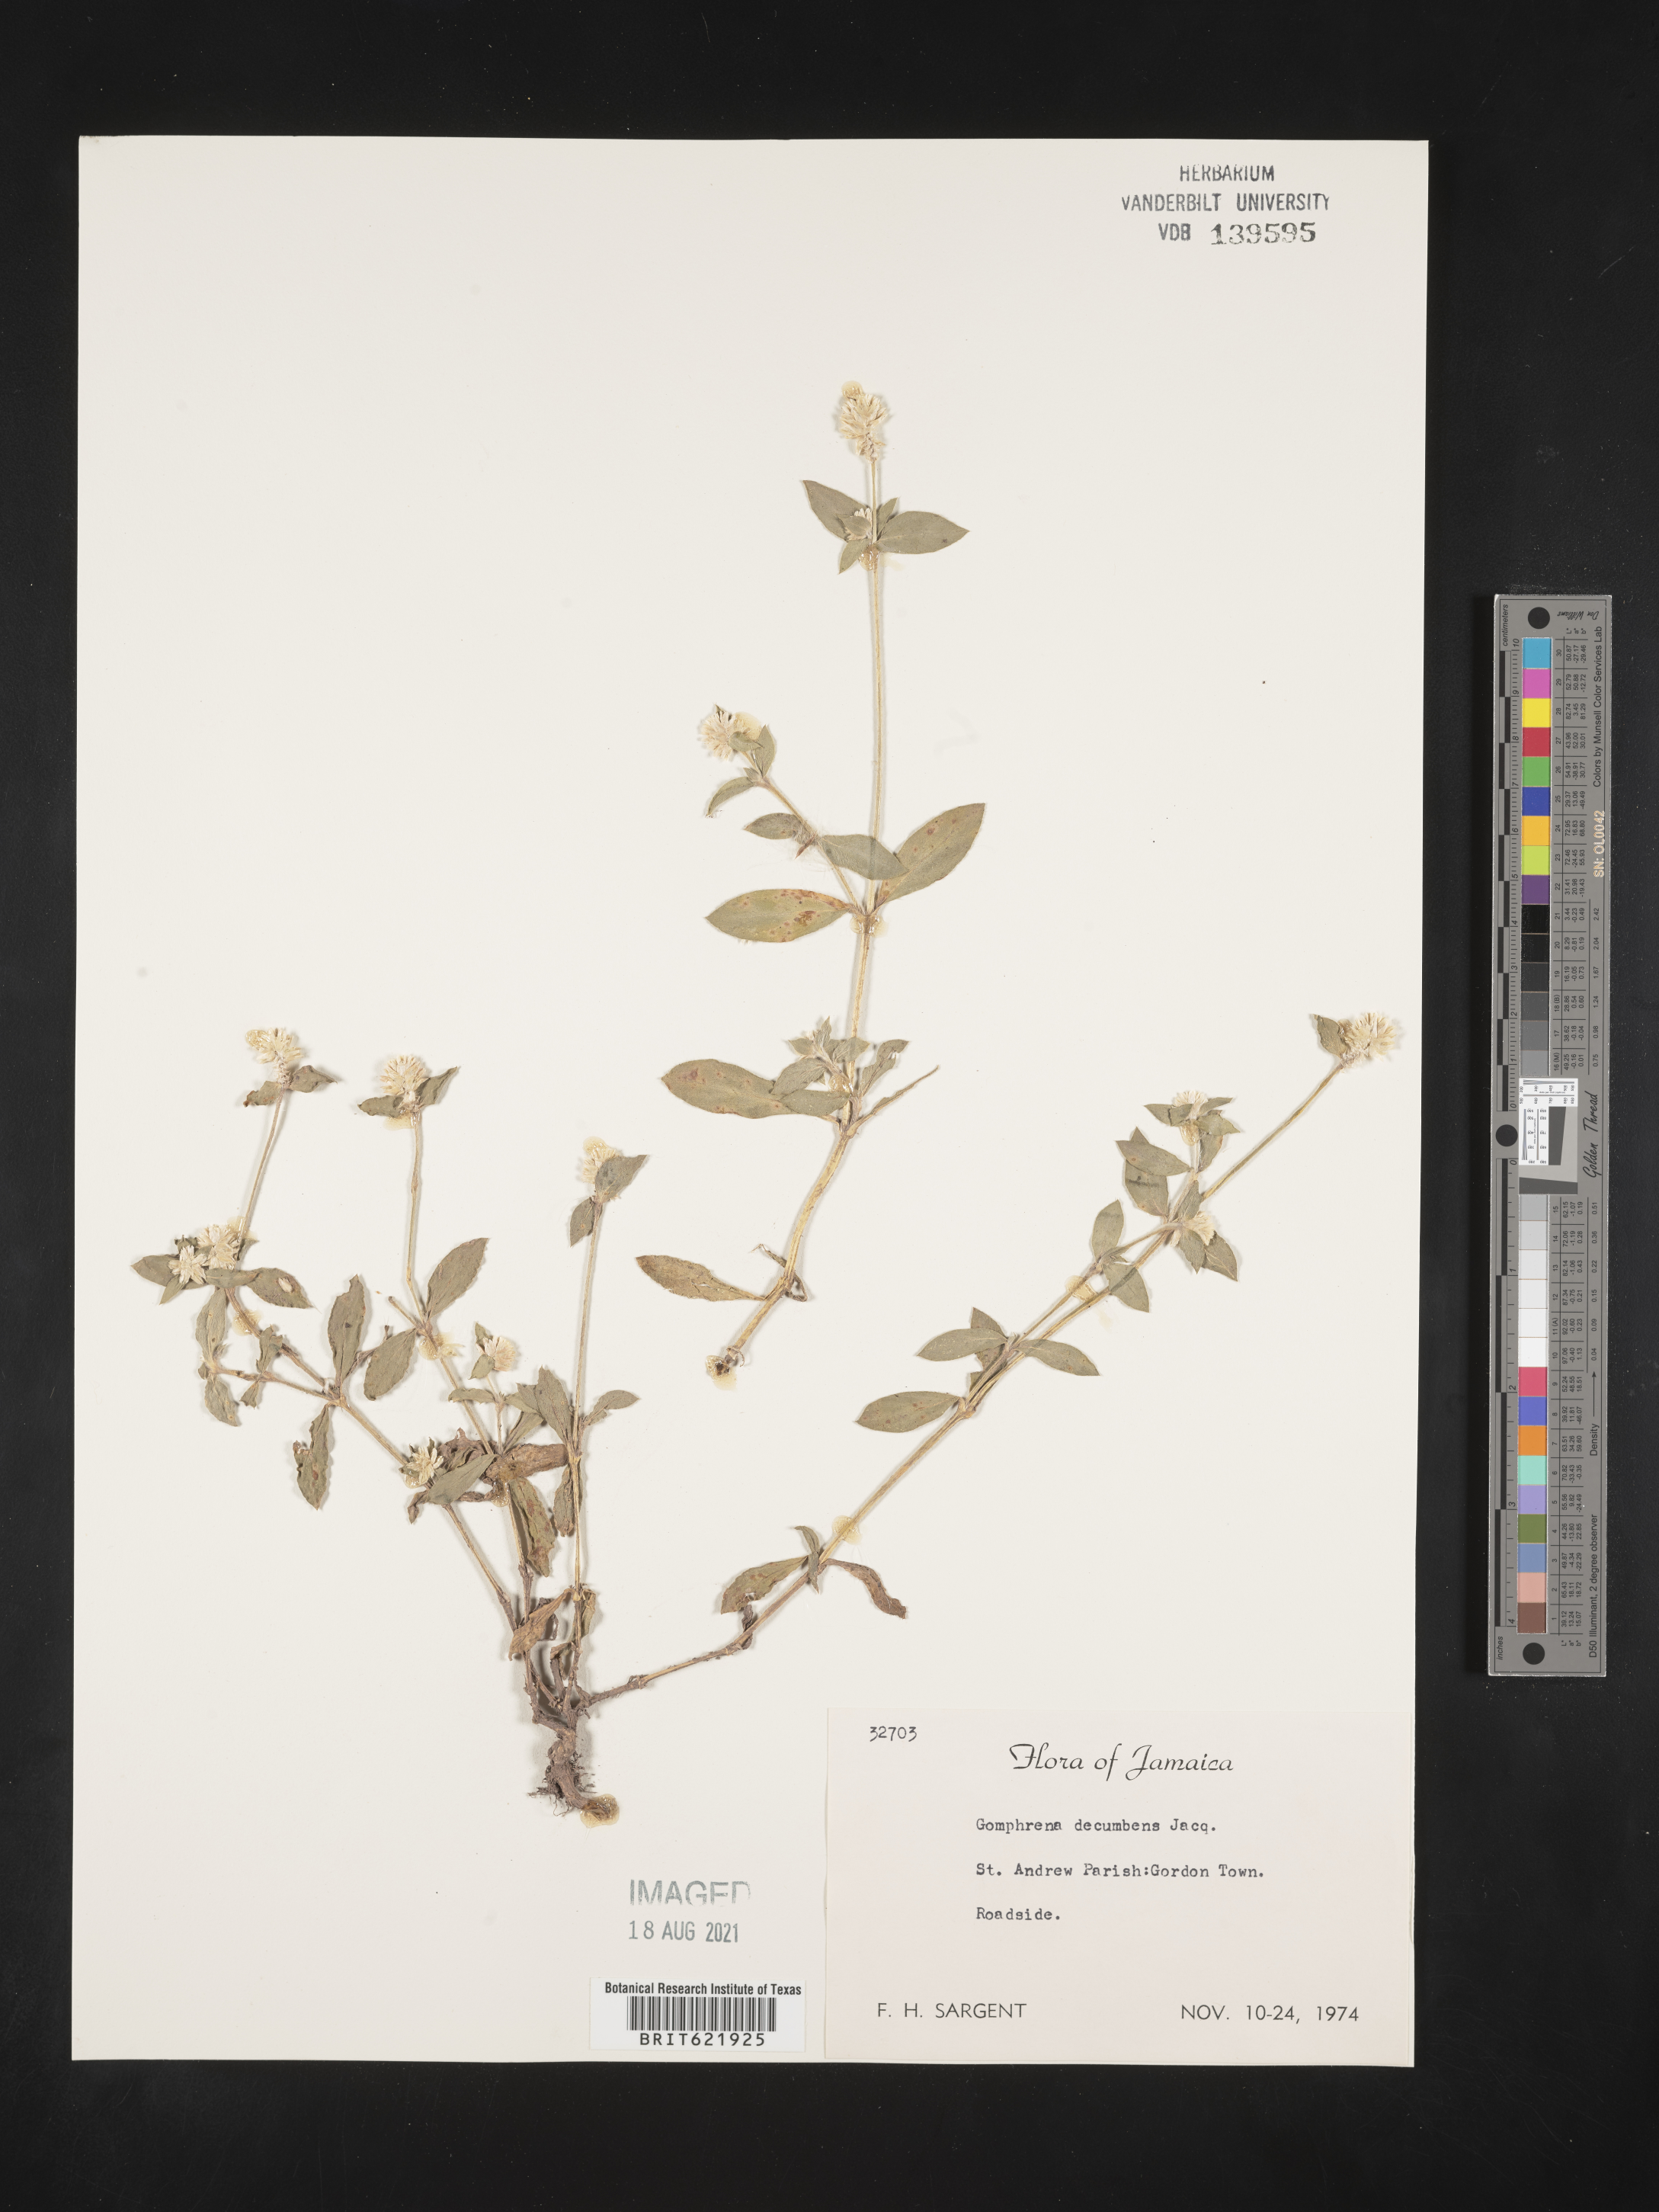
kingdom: Plantae
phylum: Tracheophyta
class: Magnoliopsida
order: Caryophyllales
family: Amaranthaceae
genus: Gomphrena
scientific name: Gomphrena serrata
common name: Arrasa con todo
